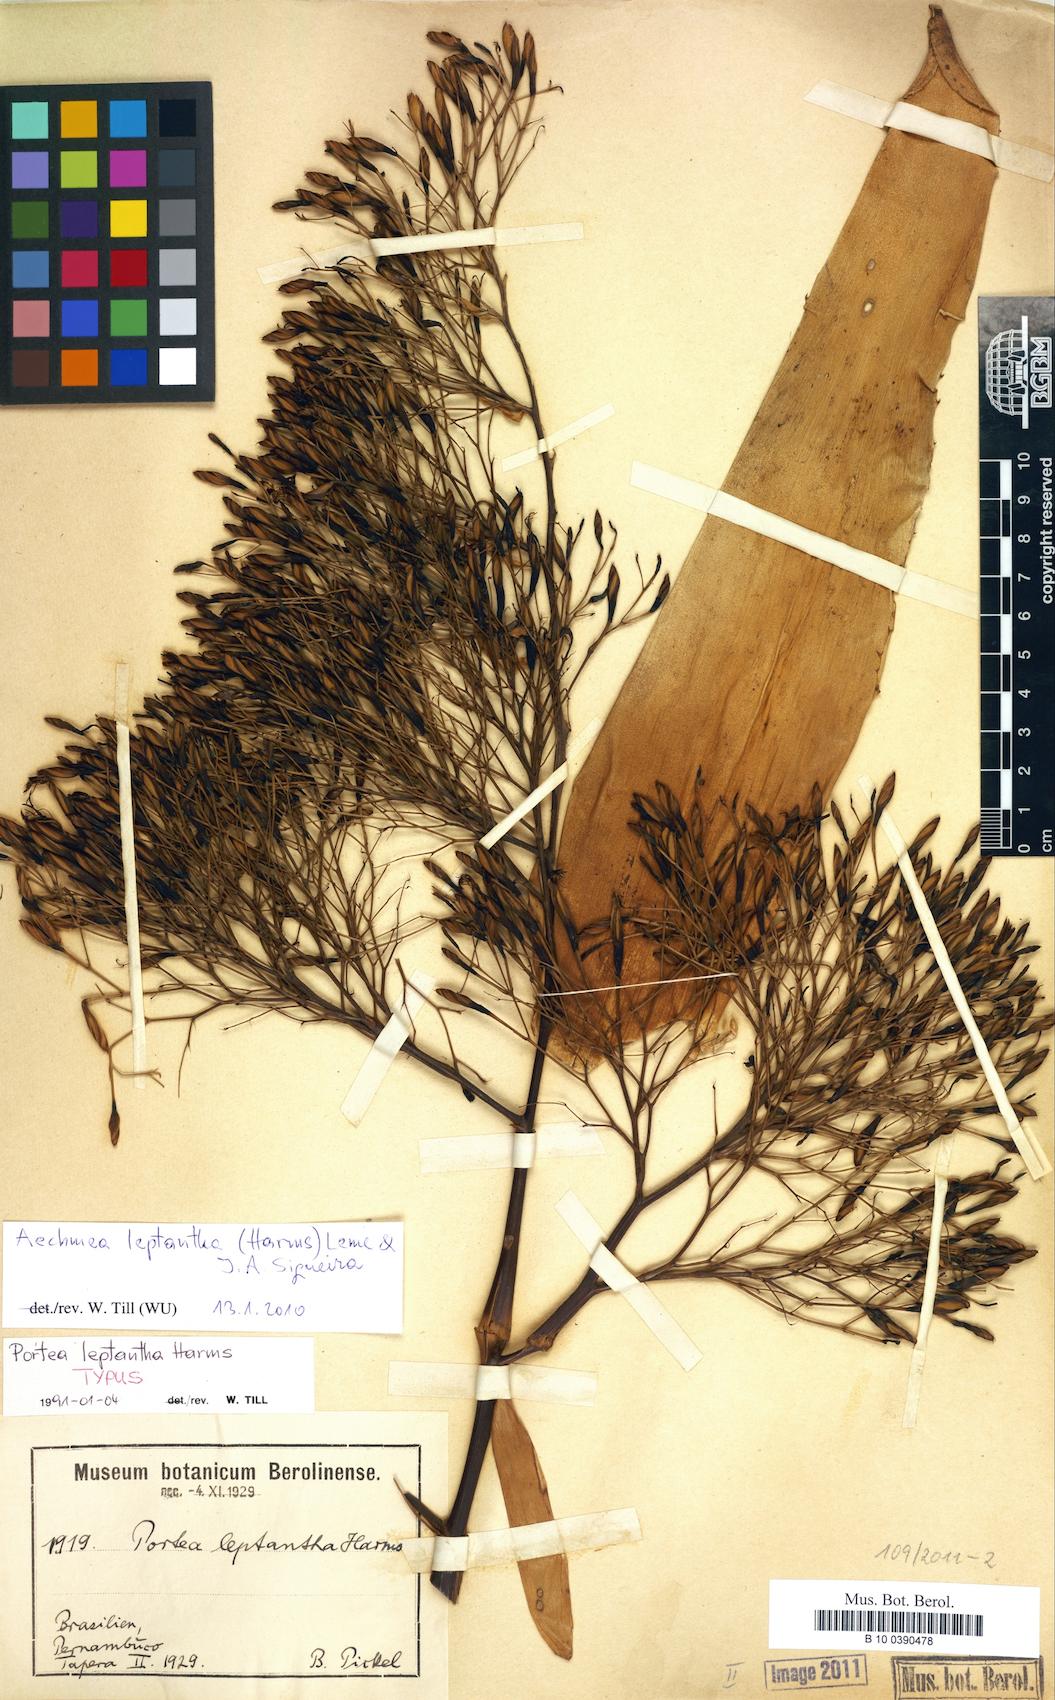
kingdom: Plantae
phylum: Tracheophyta
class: Liliopsida
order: Poales
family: Bromeliaceae
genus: Aechmea
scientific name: Aechmea leptantha
